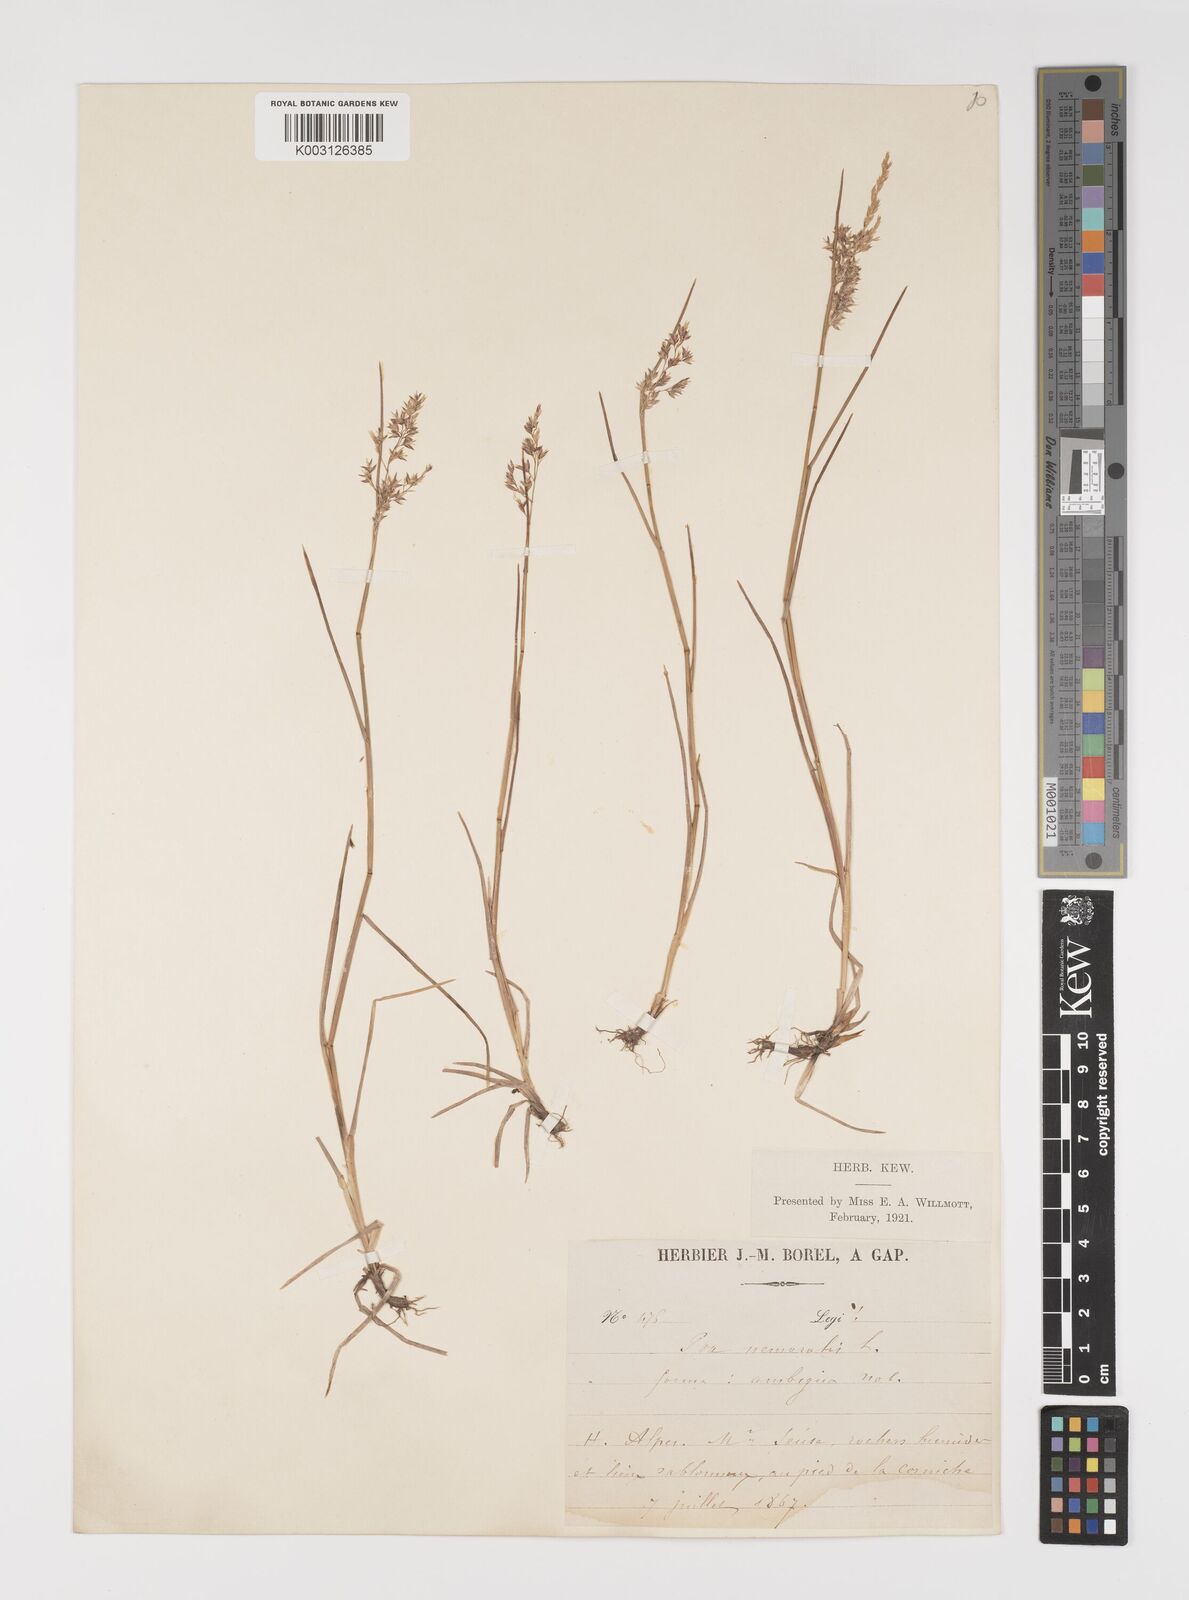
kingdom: Plantae
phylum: Tracheophyta
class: Liliopsida
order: Poales
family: Poaceae
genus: Poa
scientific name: Poa glauca
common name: Glaucous bluegrass
